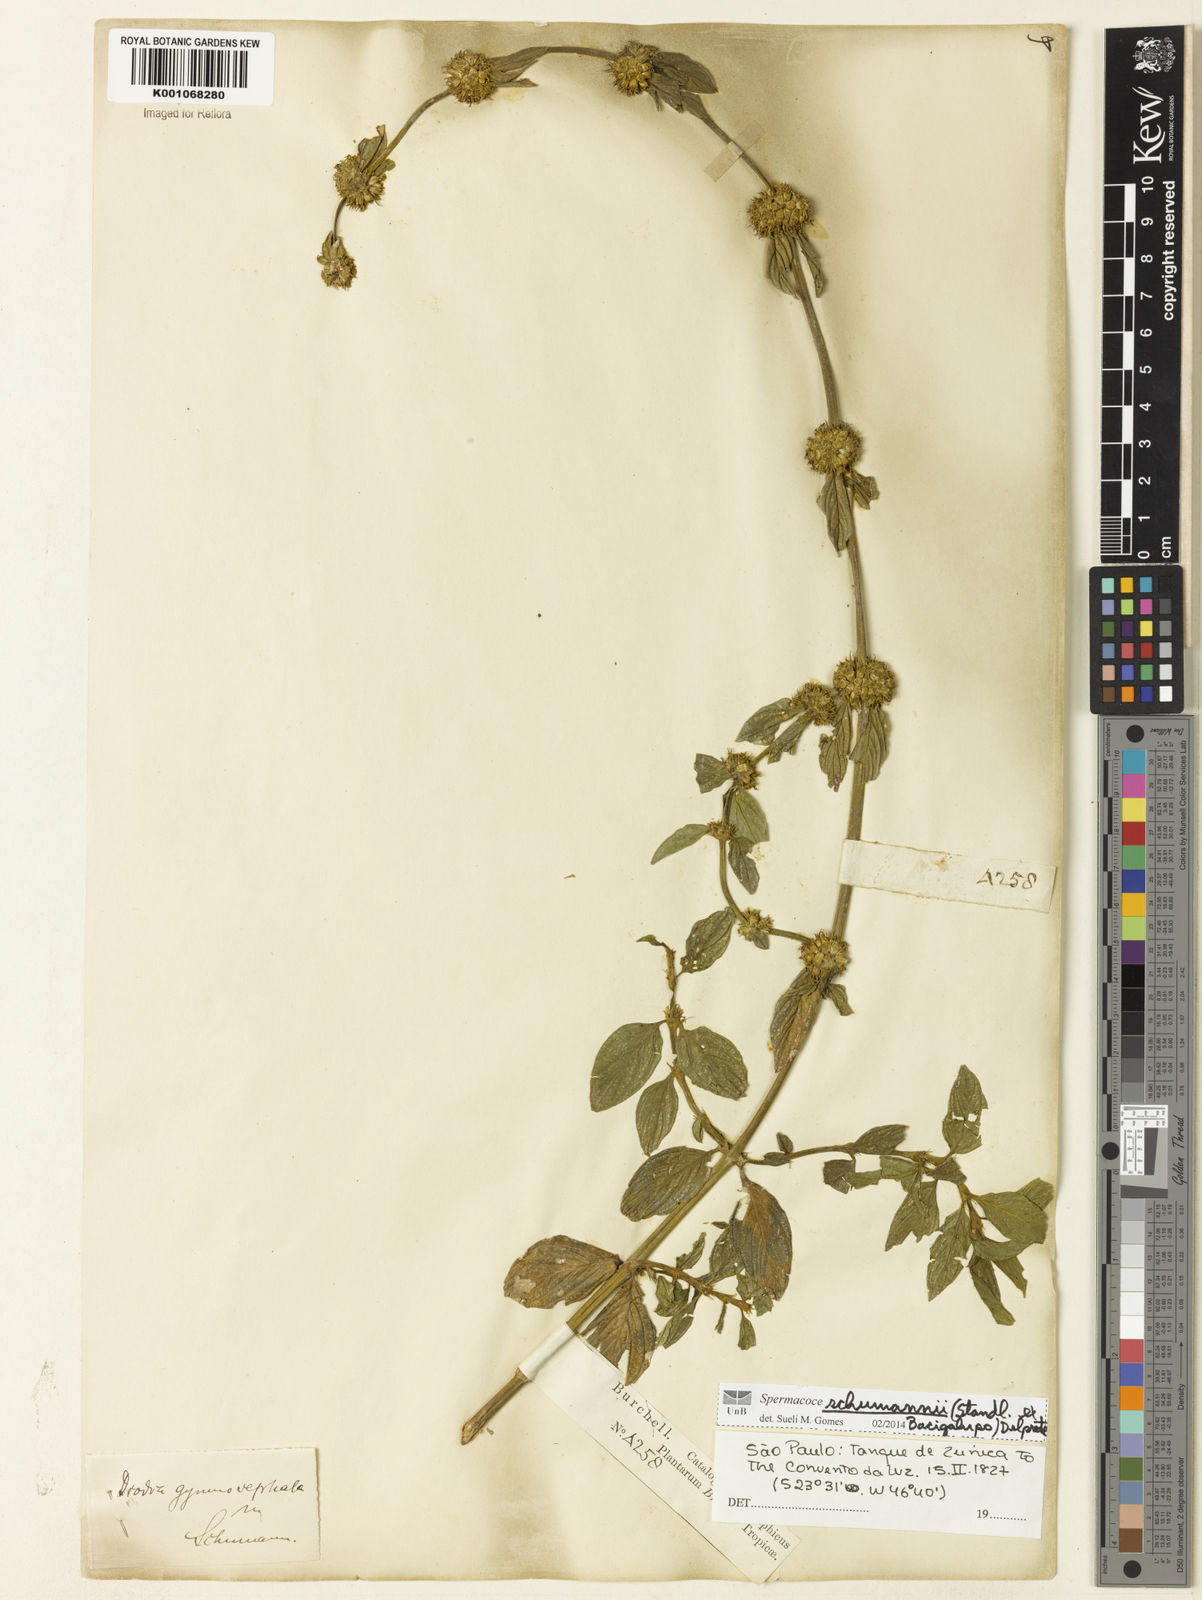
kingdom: Plantae
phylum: Tracheophyta
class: Magnoliopsida
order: Gentianales
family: Rubiaceae
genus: Spermacoce
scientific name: Spermacoce schumannii
